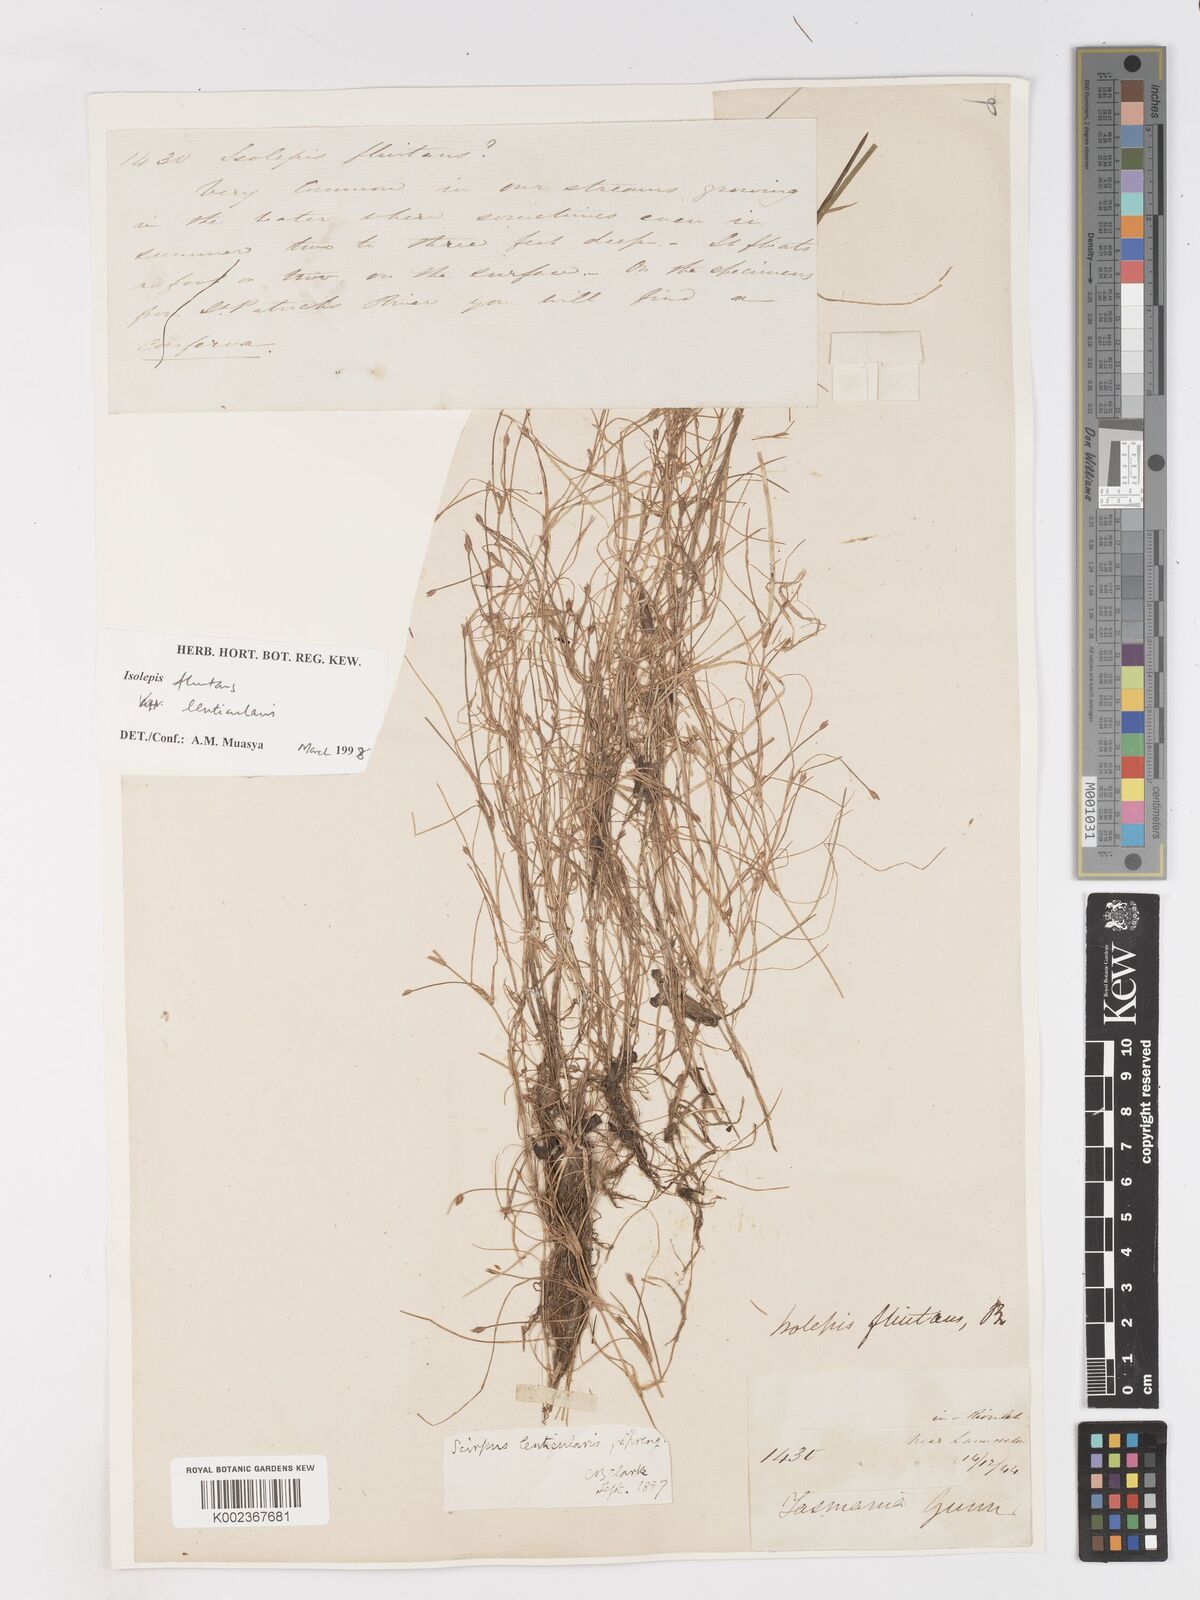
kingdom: Plantae
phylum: Tracheophyta
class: Liliopsida
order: Poales
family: Cyperaceae
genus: Isolepis
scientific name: Isolepis fluitans
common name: Floating club-rush
